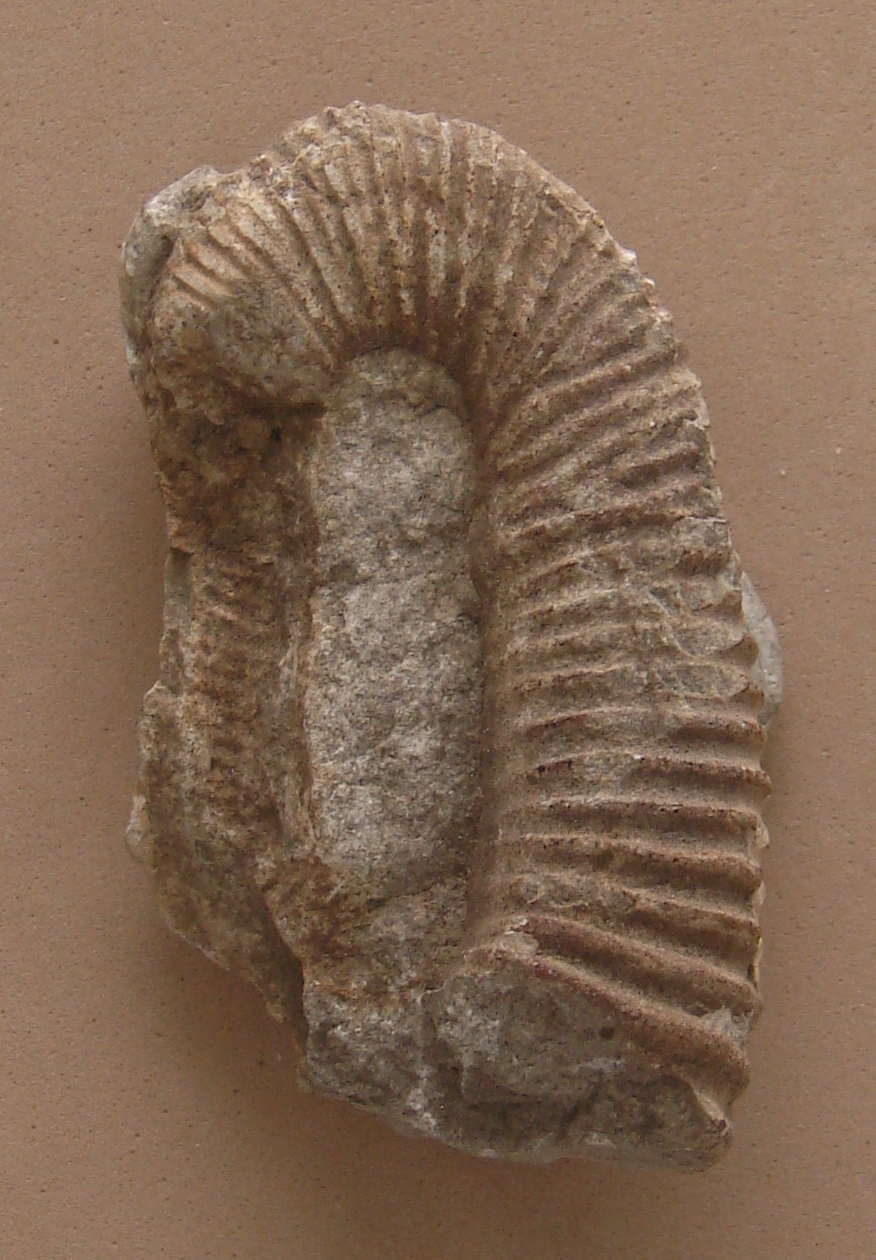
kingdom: Animalia
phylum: Mollusca
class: Cephalopoda
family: Heteroceratidae
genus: Heteroceras
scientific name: Heteroceras
